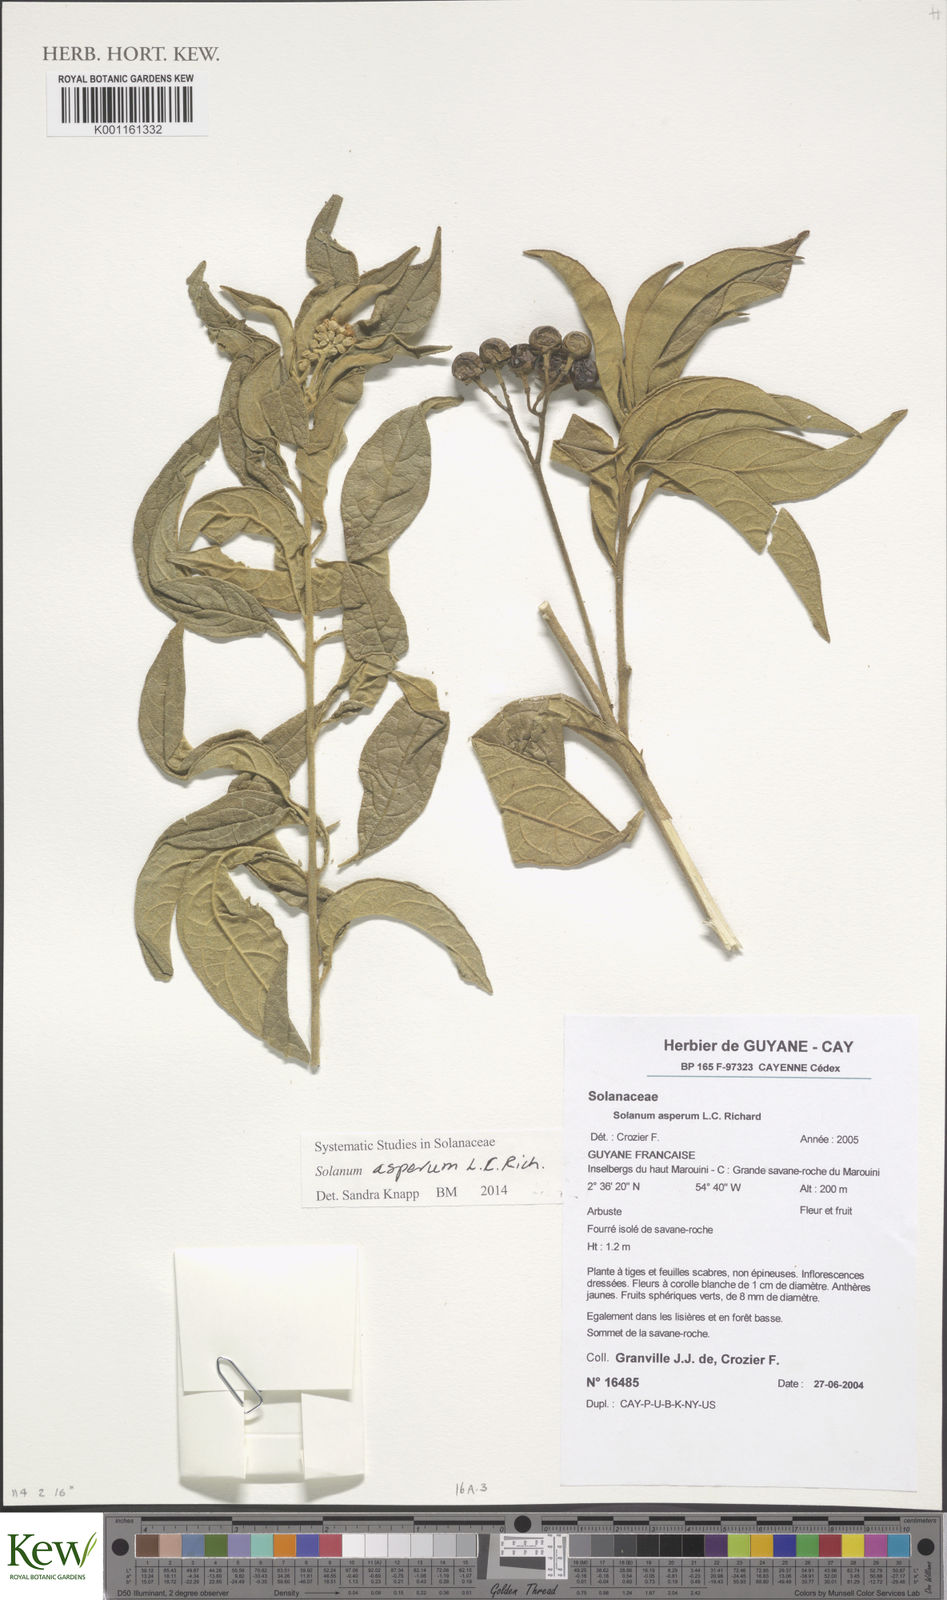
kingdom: Plantae
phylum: Tracheophyta
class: Magnoliopsida
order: Solanales
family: Solanaceae
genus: Solanum
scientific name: Solanum asperum
